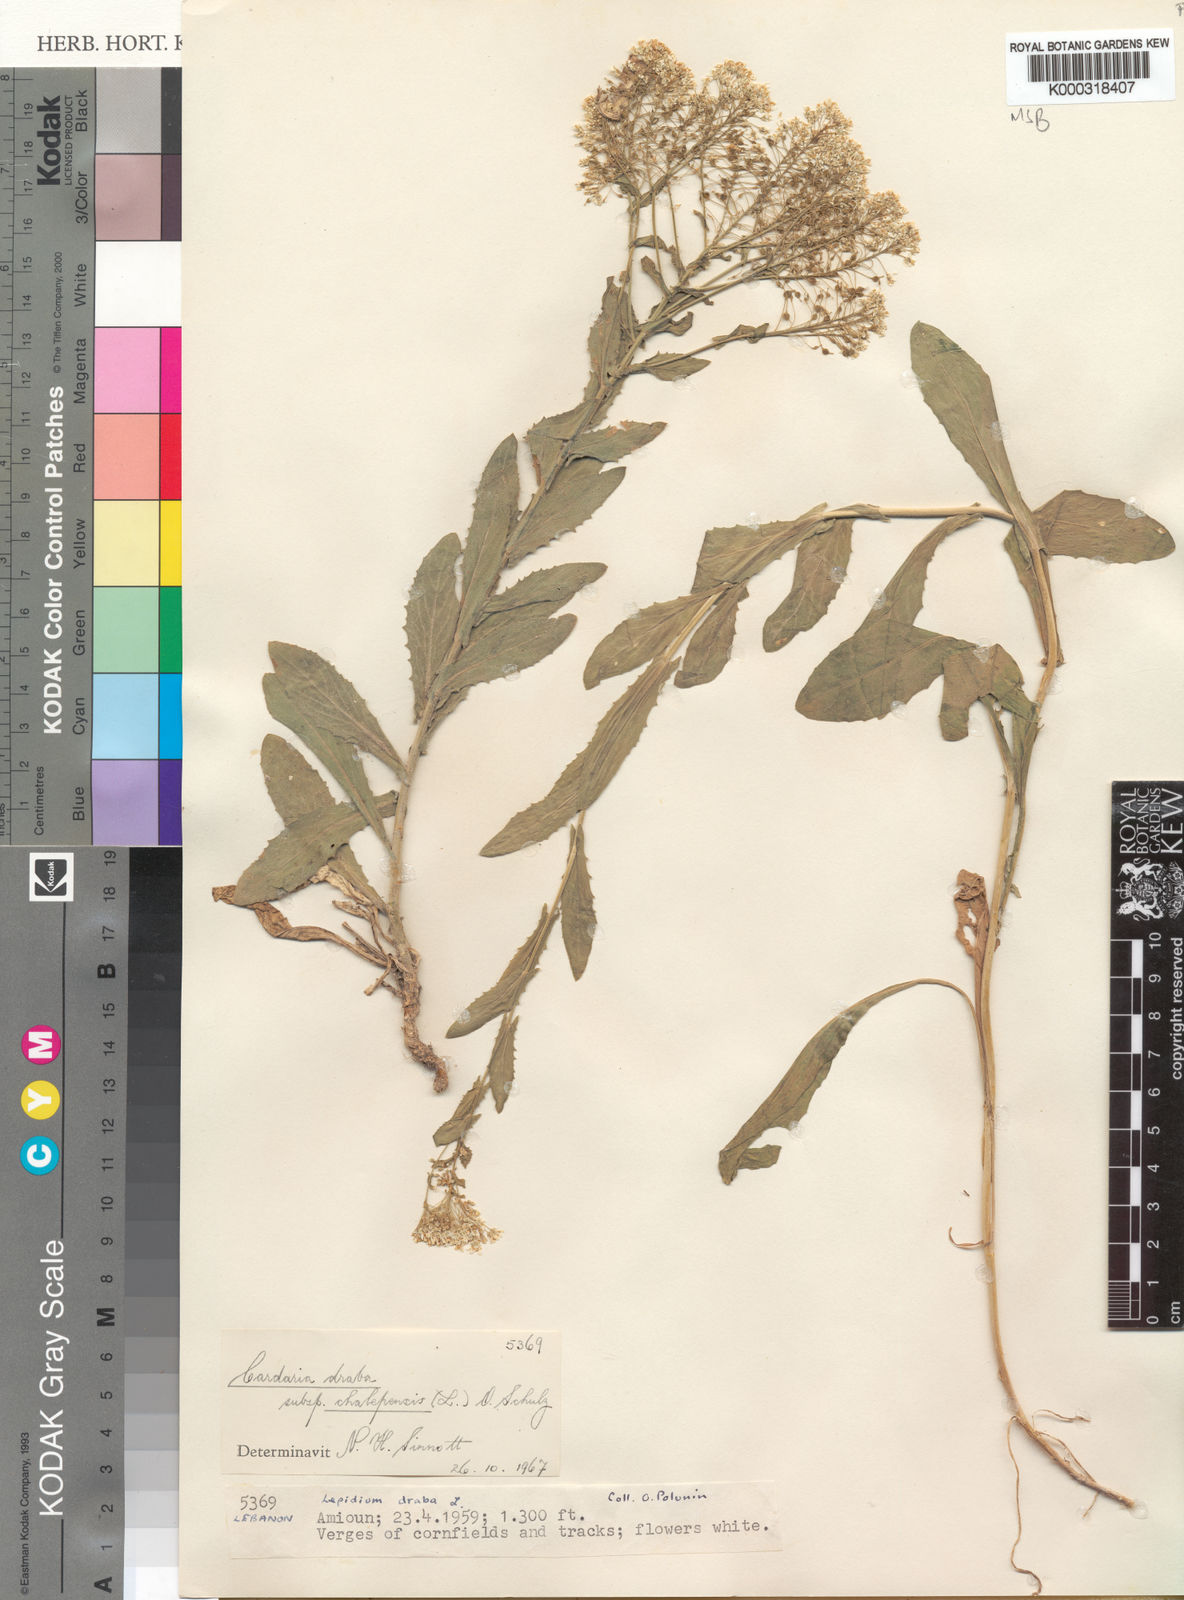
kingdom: Plantae
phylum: Tracheophyta
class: Magnoliopsida
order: Brassicales
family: Brassicaceae
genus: Lepidium
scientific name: Lepidium draba
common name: Hoary cress
